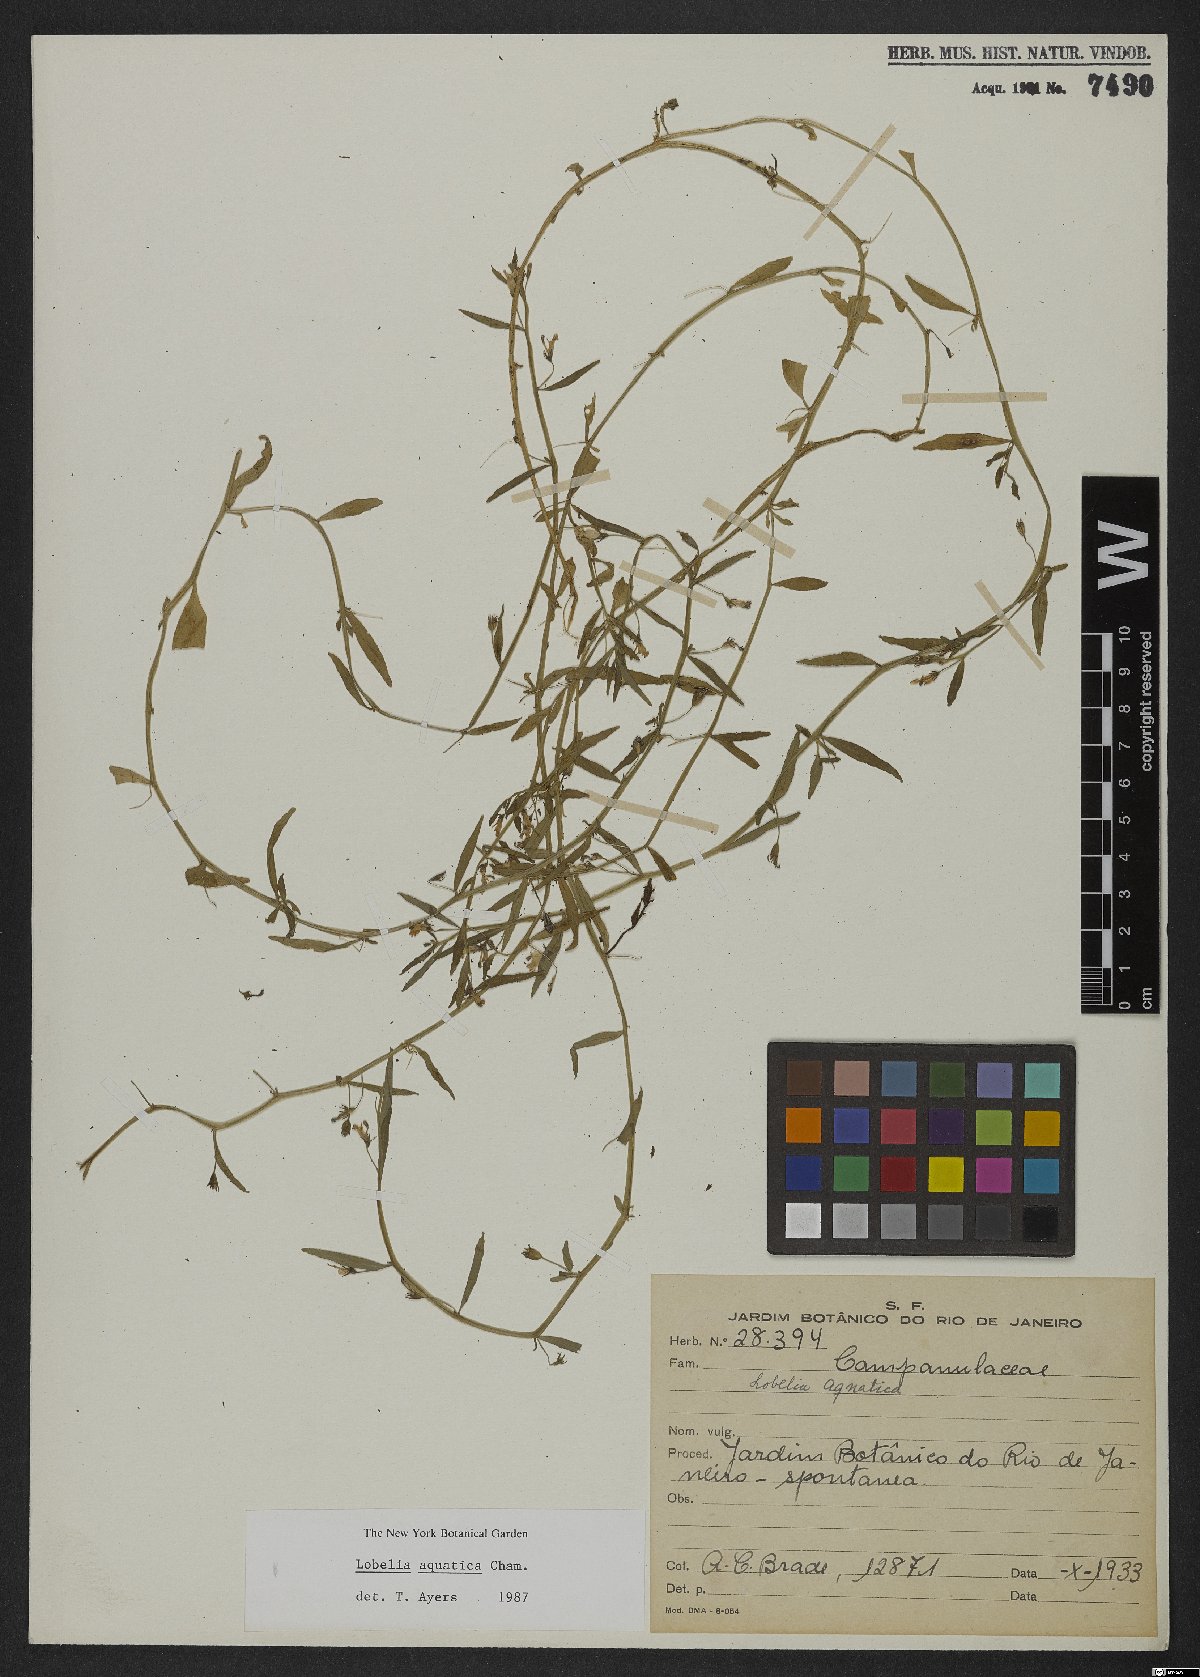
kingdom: Plantae
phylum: Tracheophyta
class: Magnoliopsida
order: Asterales
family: Campanulaceae
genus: Lobelia
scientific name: Lobelia aquatica
